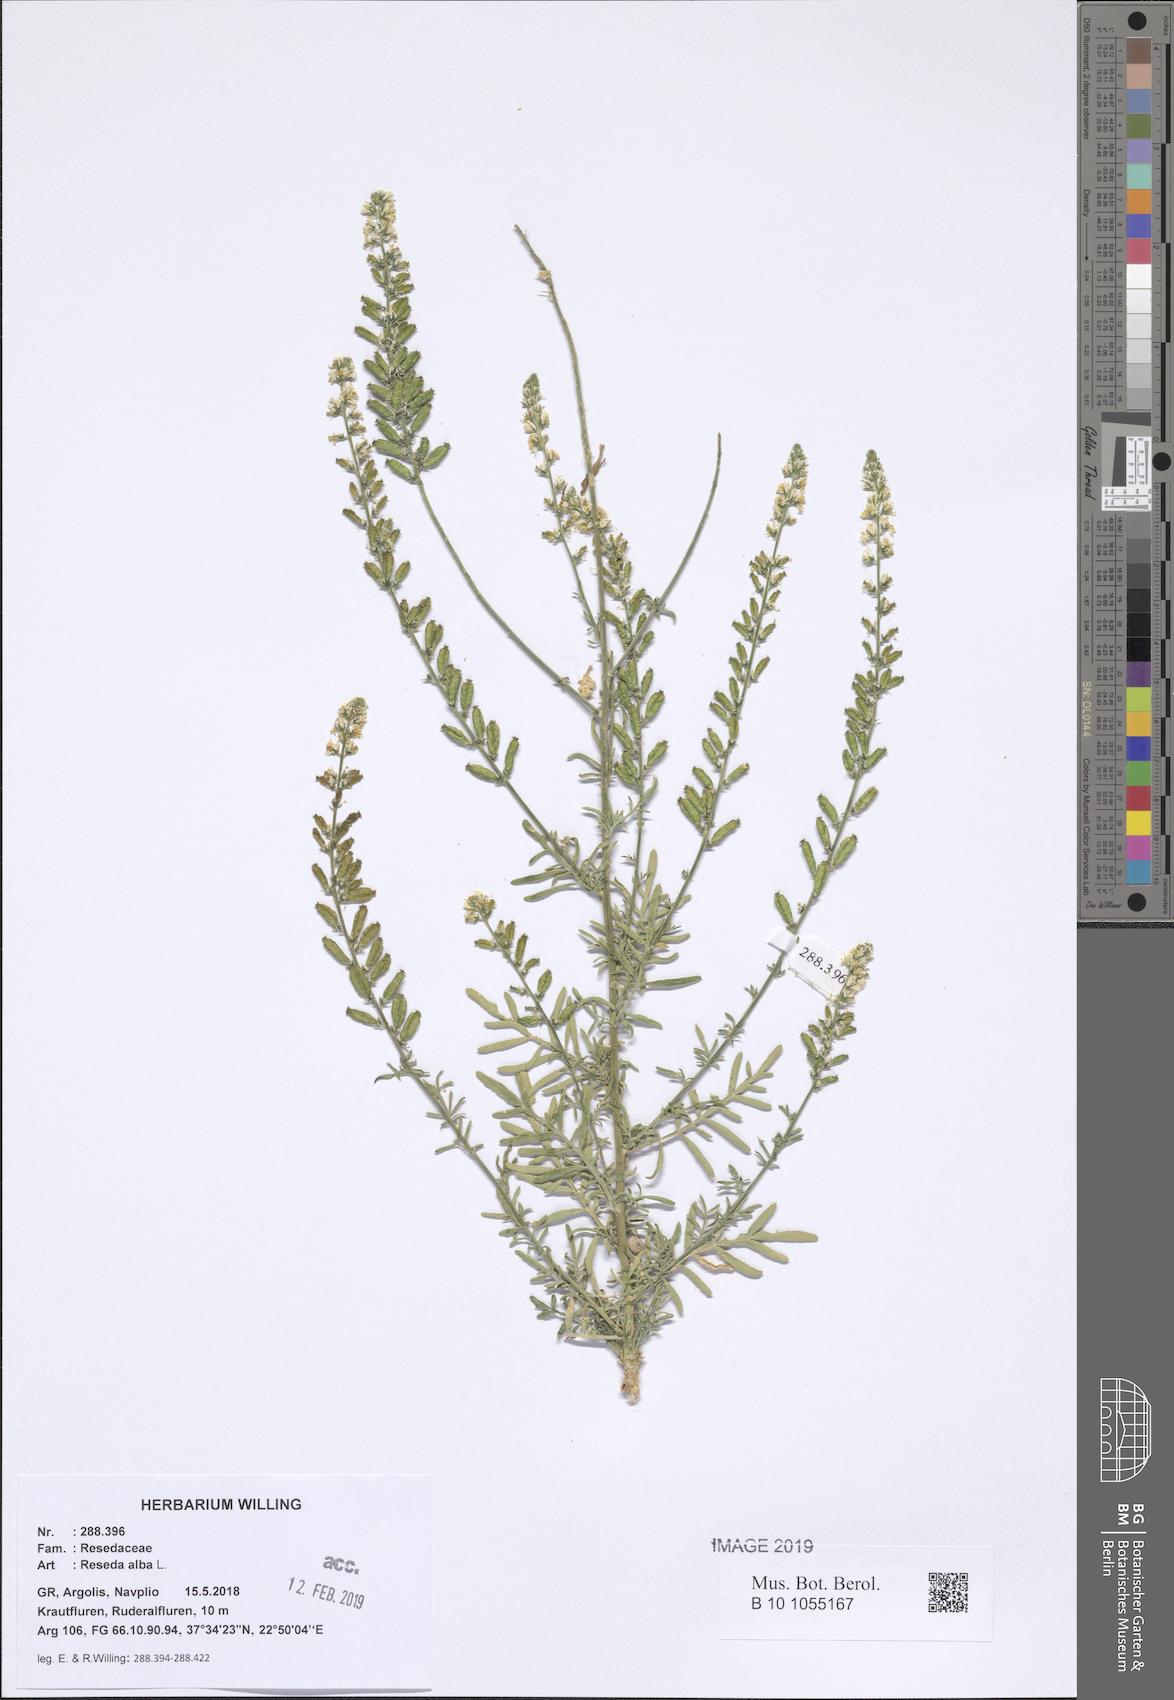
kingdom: Plantae
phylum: Tracheophyta
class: Magnoliopsida
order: Brassicales
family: Resedaceae
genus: Reseda
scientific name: Reseda alba
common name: White mignonette
